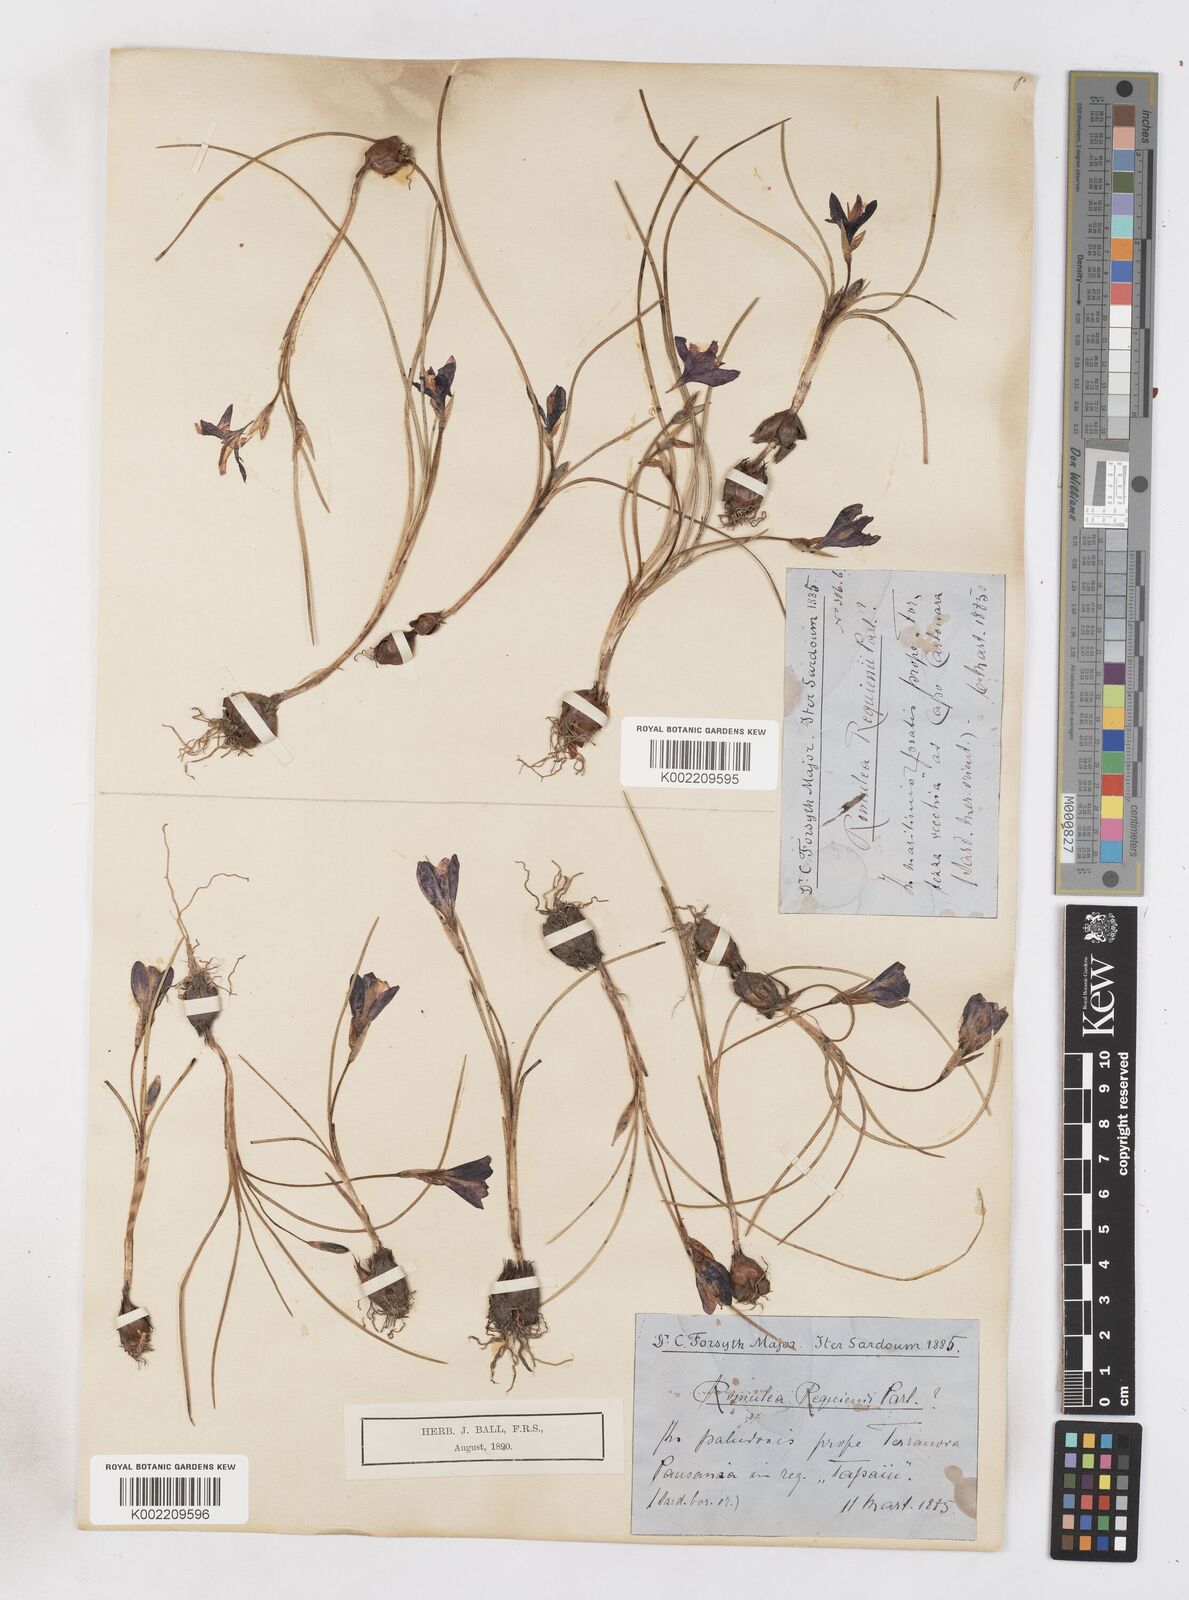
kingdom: Plantae
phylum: Tracheophyta
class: Liliopsida
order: Asparagales
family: Iridaceae
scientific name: Iridaceae
